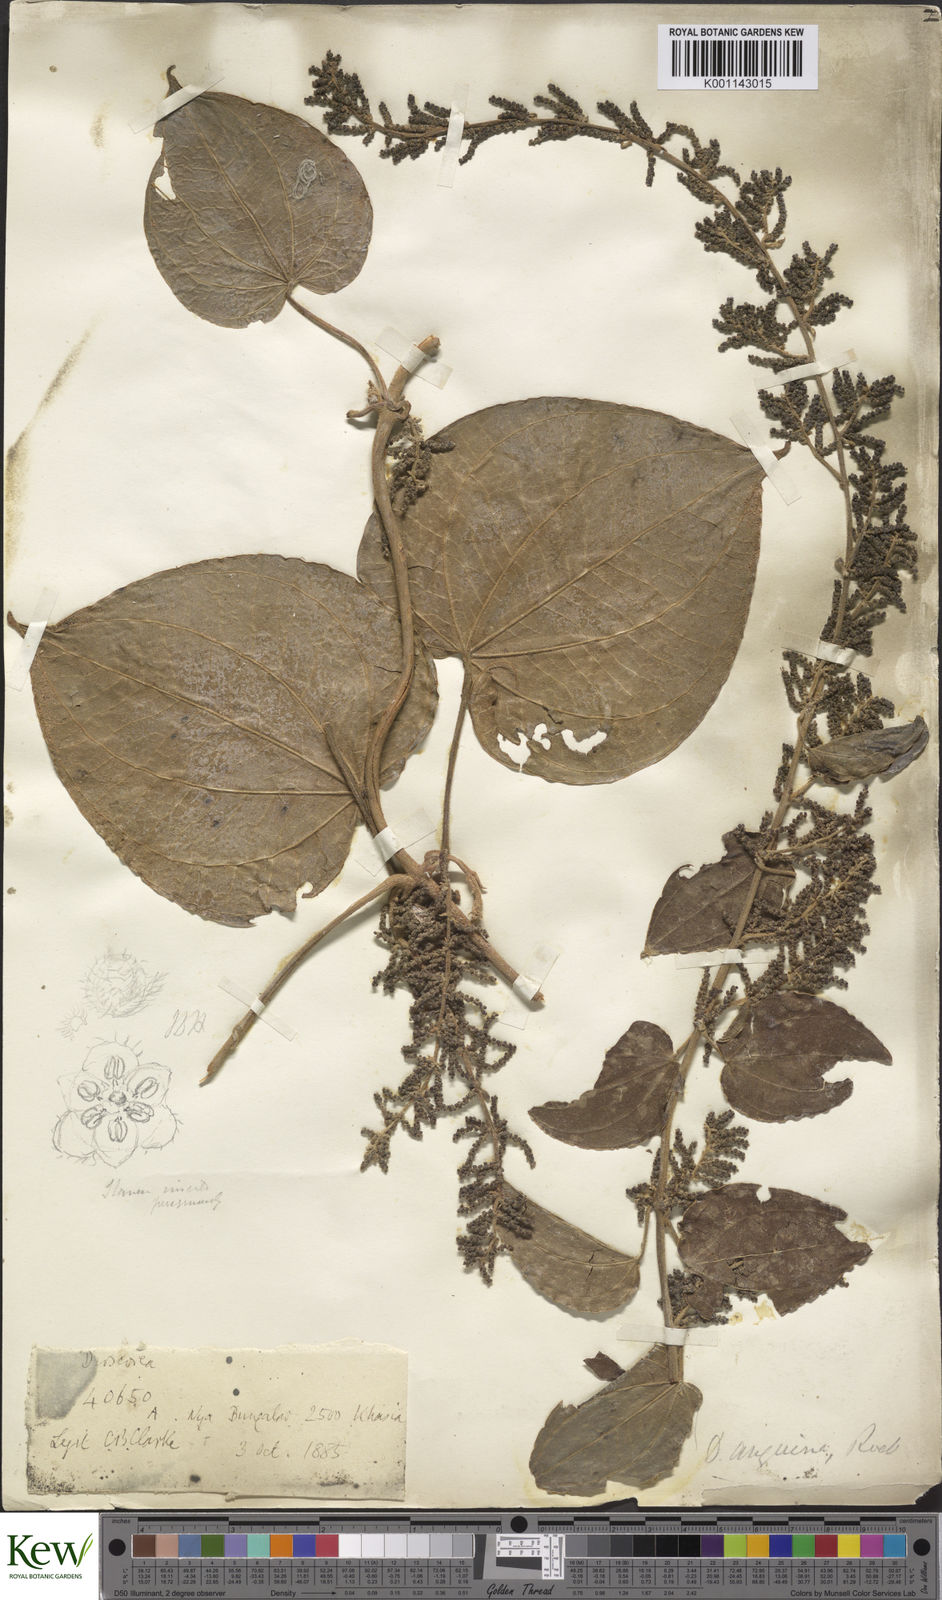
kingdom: Plantae
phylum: Tracheophyta
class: Liliopsida
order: Dioscoreales
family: Dioscoreaceae
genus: Dioscorea
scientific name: Dioscorea pubera
